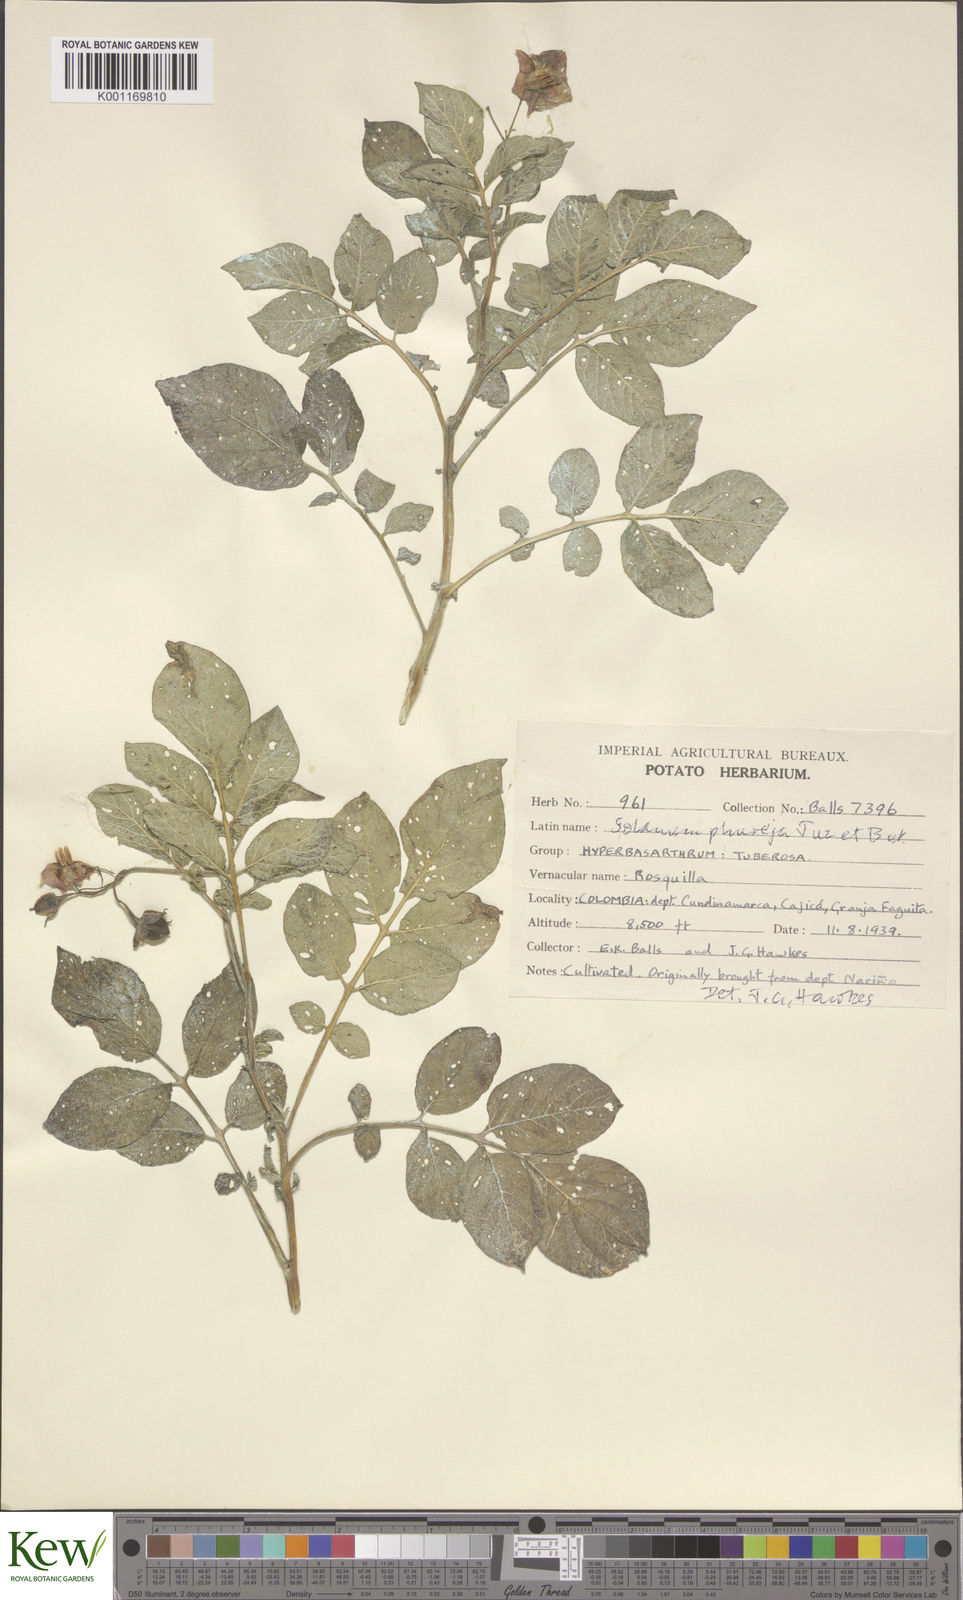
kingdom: Plantae
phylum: Tracheophyta
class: Magnoliopsida
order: Solanales
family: Solanaceae
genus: Solanum
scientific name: Solanum tuberosum
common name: Potato
